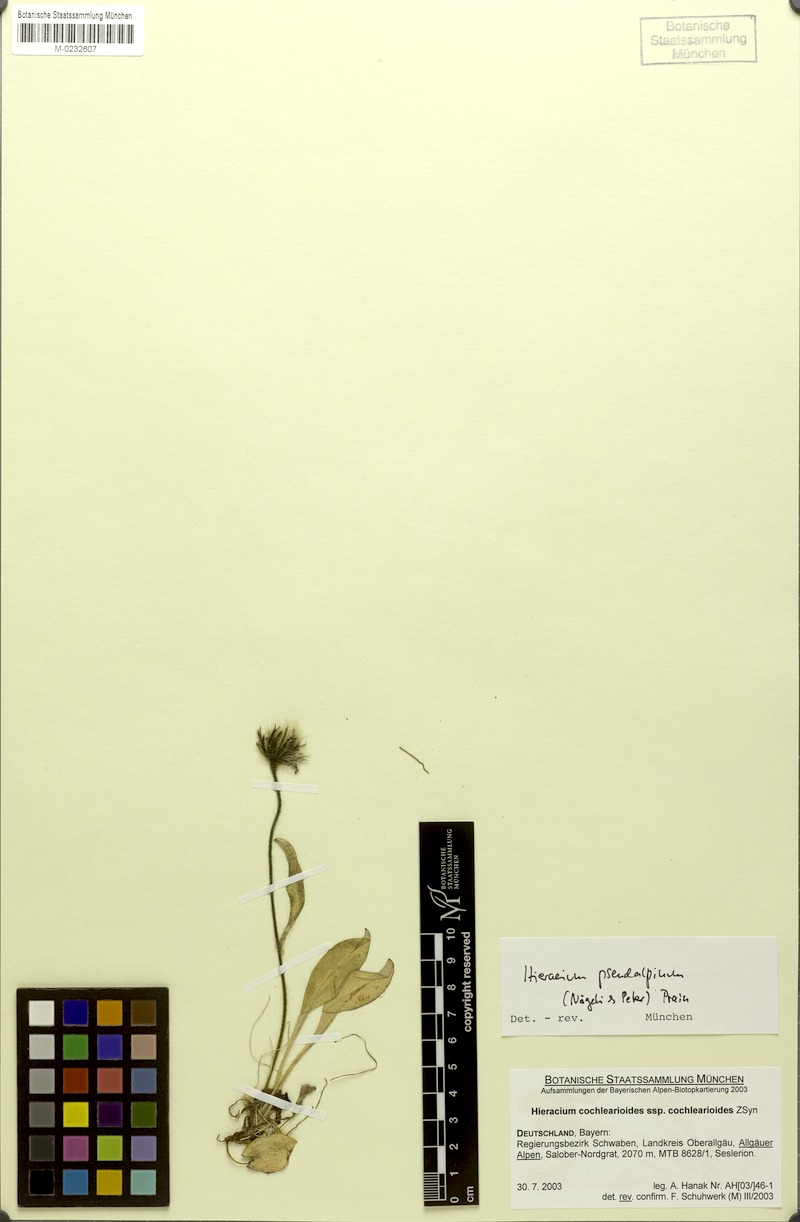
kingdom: Plantae
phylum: Tracheophyta
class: Magnoliopsida
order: Asterales
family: Asteraceae
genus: Hieracium
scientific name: Hieracium pseudalpinum
